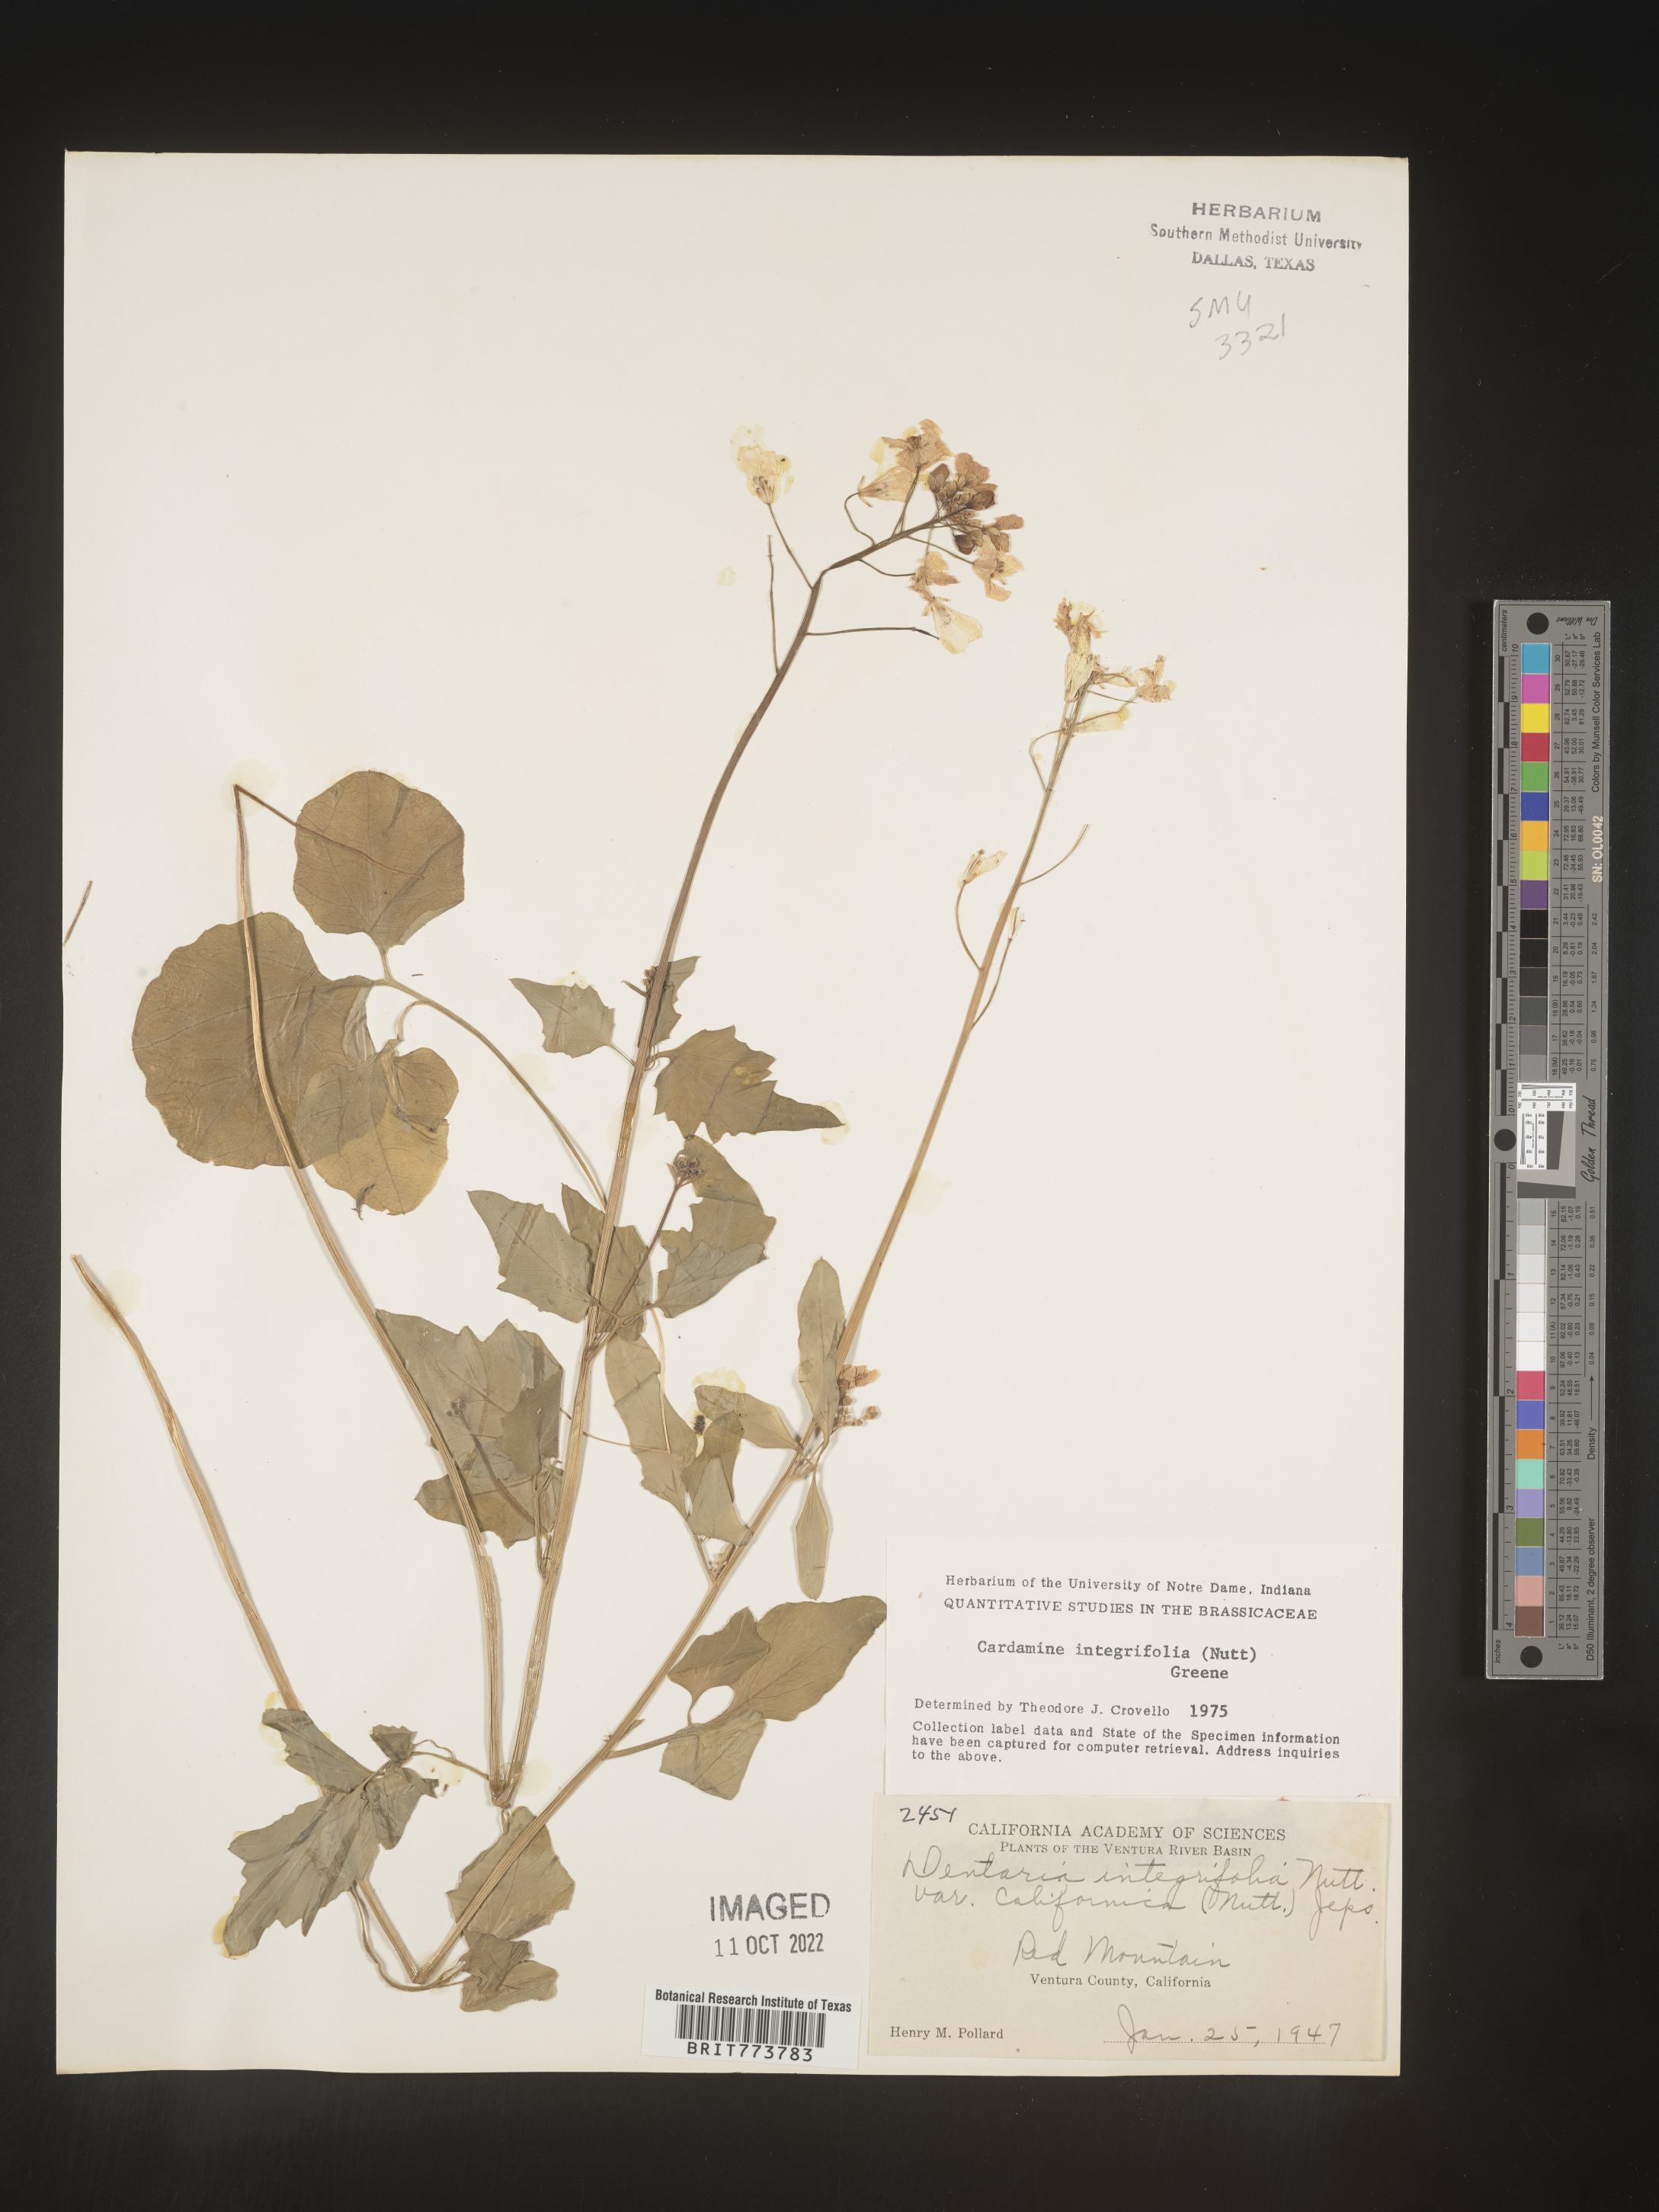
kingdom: Plantae
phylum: Tracheophyta
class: Magnoliopsida
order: Brassicales
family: Brassicaceae
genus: Cardamine
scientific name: Cardamine bellidifolia
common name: Alpine bittercress
